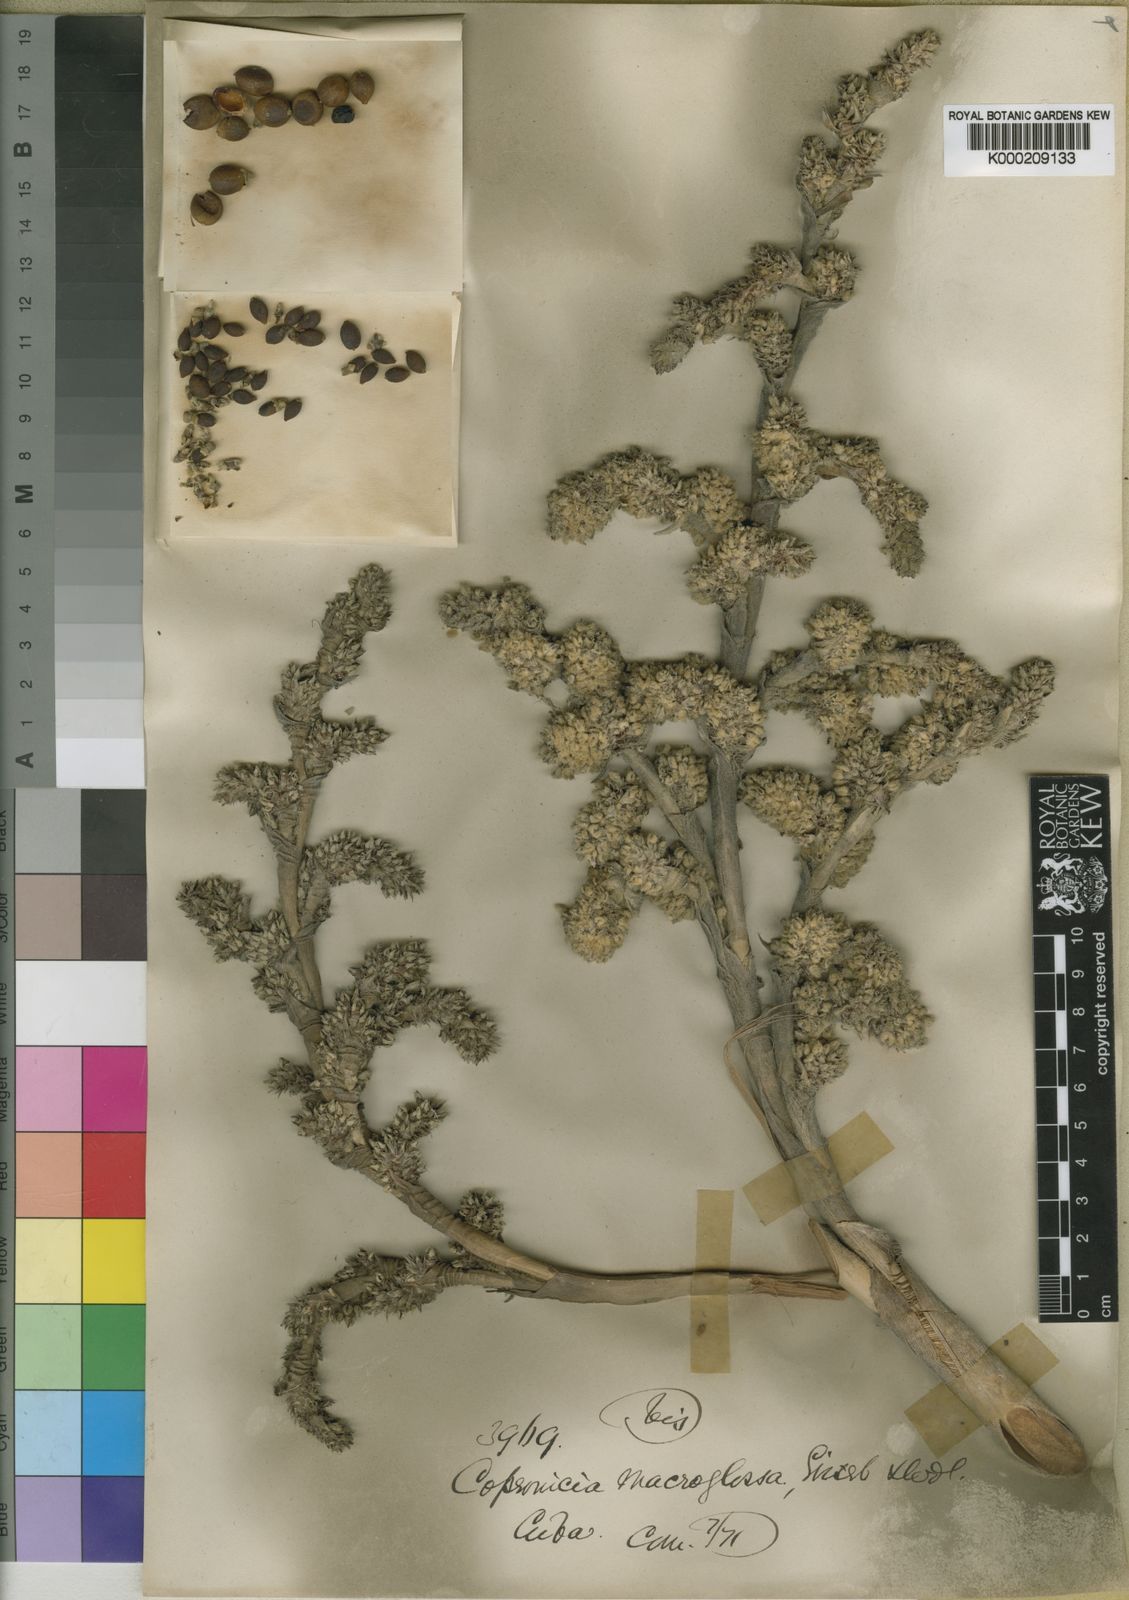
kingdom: Plantae
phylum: Tracheophyta
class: Liliopsida
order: Arecales
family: Arecaceae
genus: Copernicia
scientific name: Copernicia
